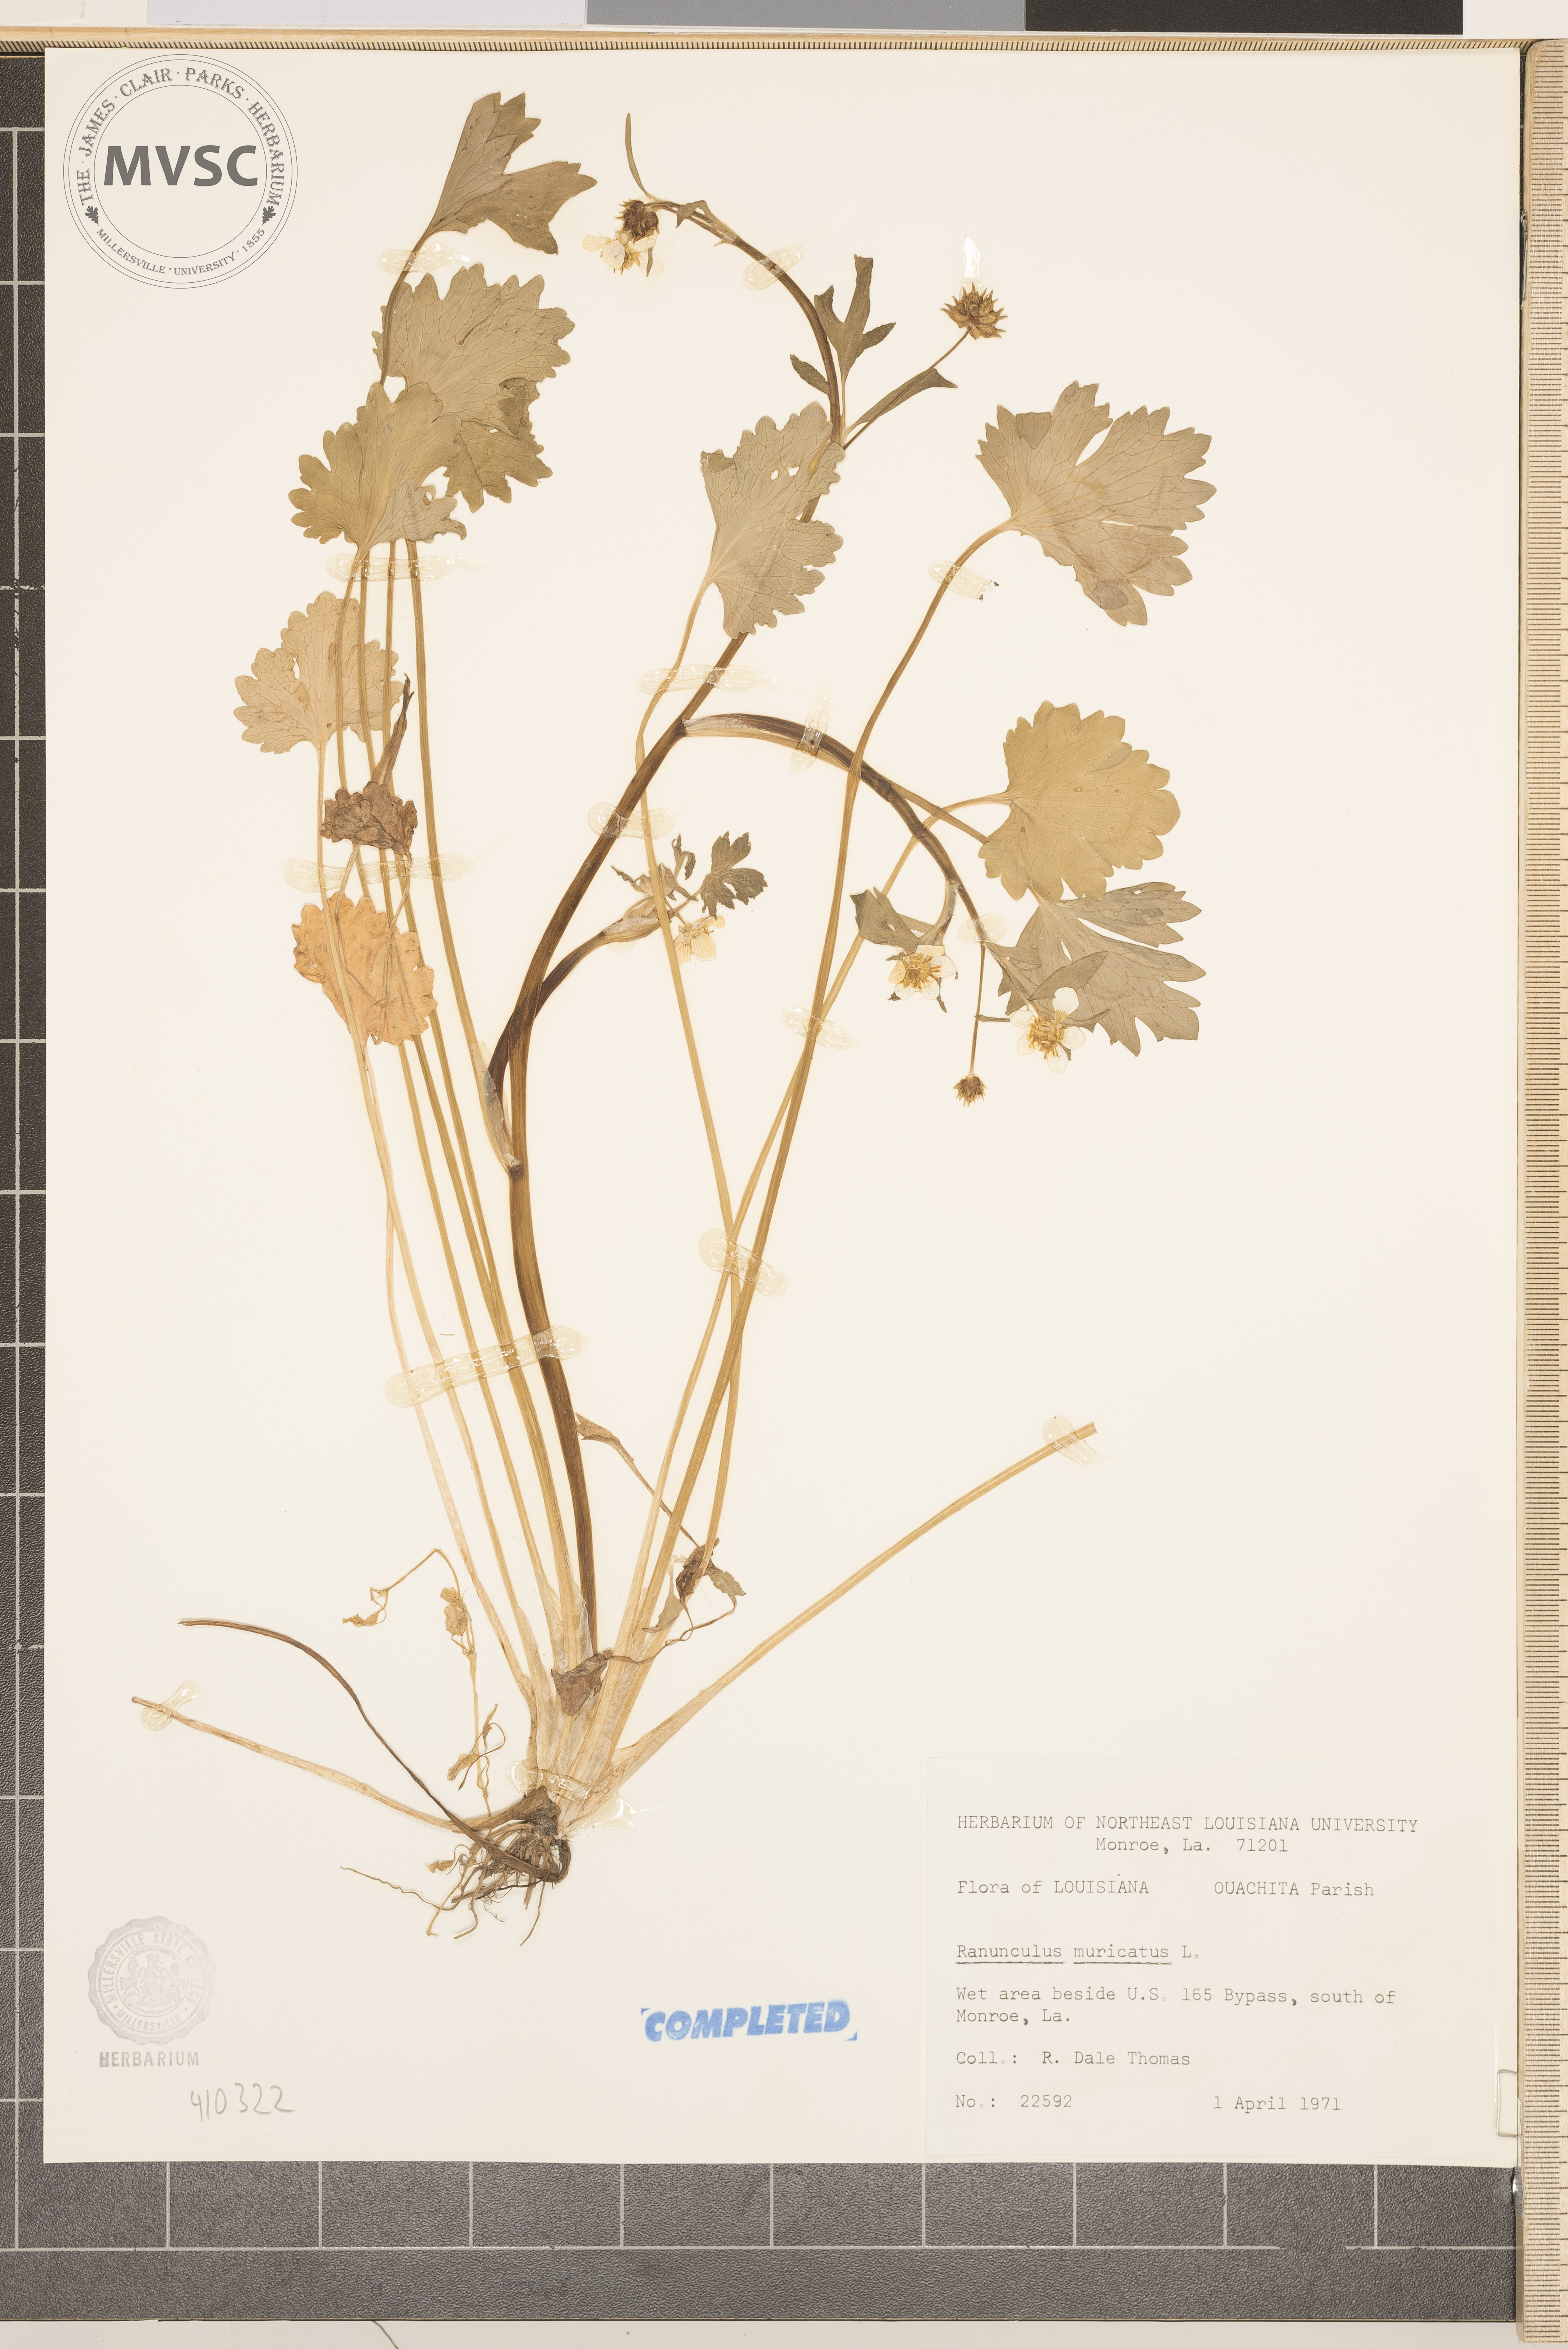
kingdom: Plantae
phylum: Tracheophyta
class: Magnoliopsida
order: Ranunculales
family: Ranunculaceae
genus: Ranunculus
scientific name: Ranunculus muricatus
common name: Rough-fruited buttercup
